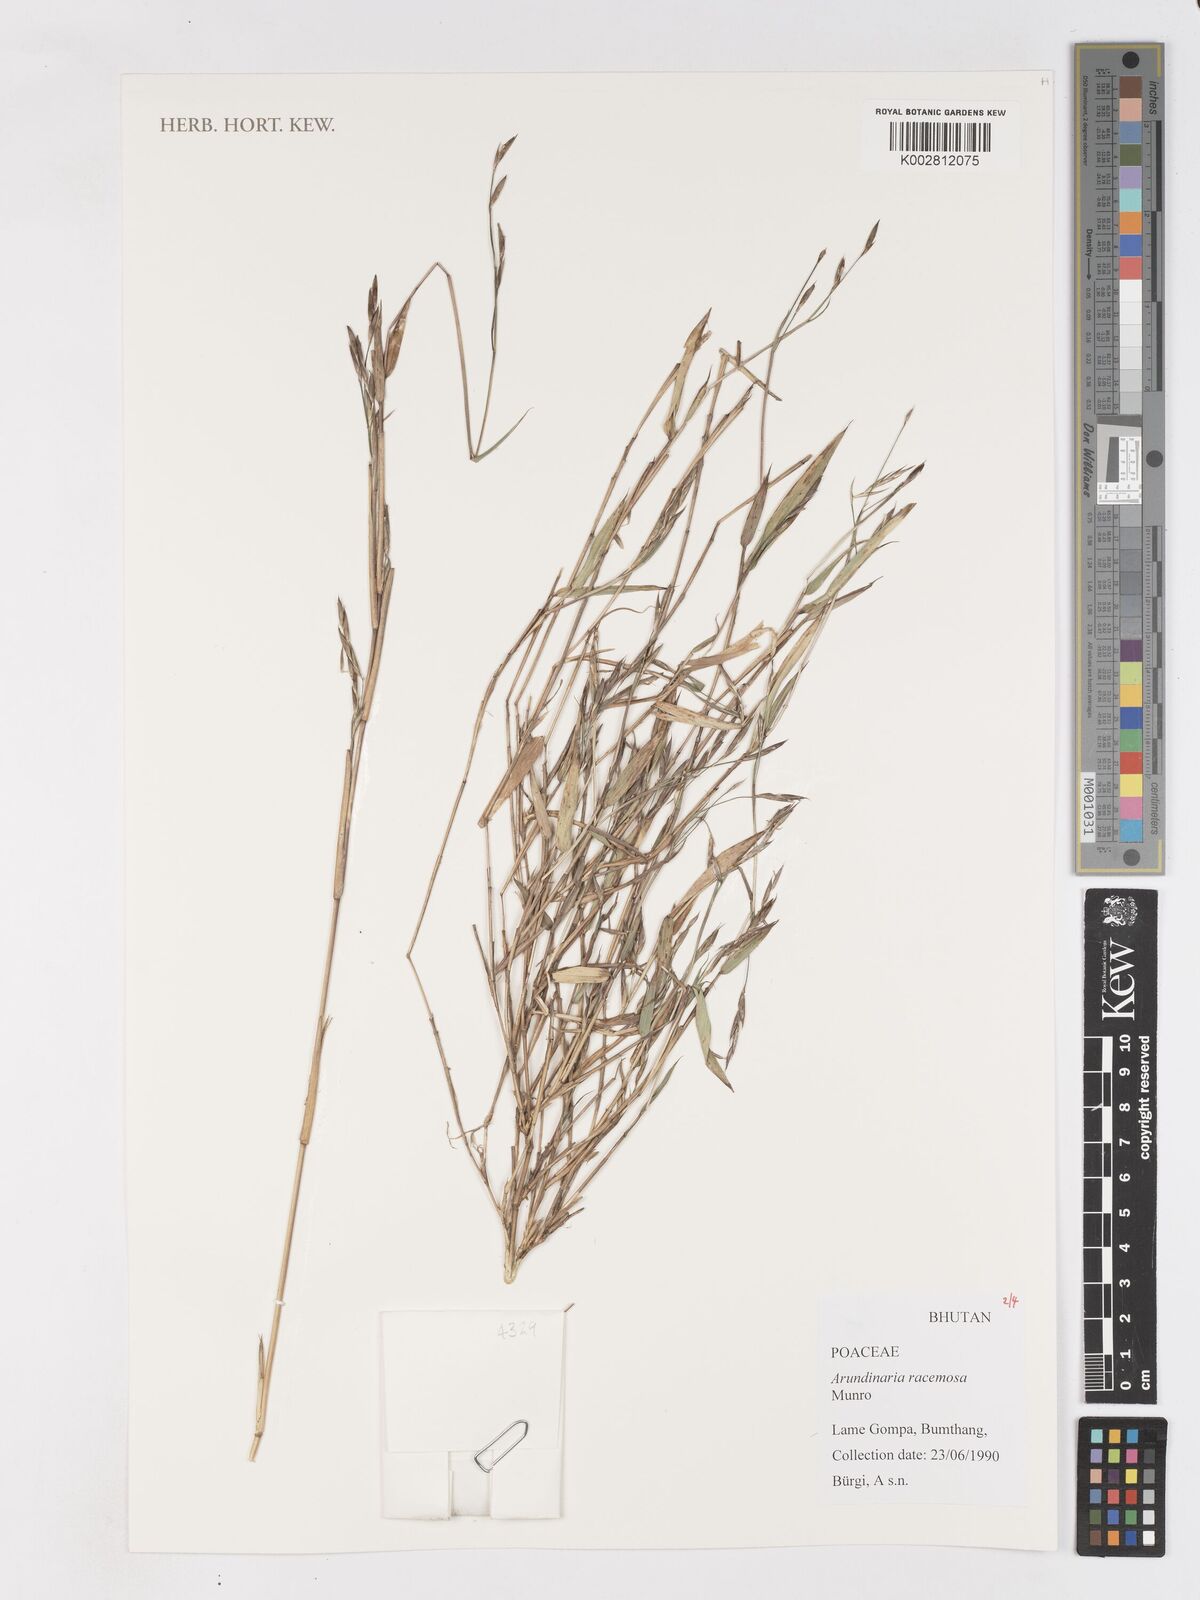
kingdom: Plantae
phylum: Tracheophyta
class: Liliopsida
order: Poales
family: Poaceae
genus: Sarocalamus
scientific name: Sarocalamus racemosus
